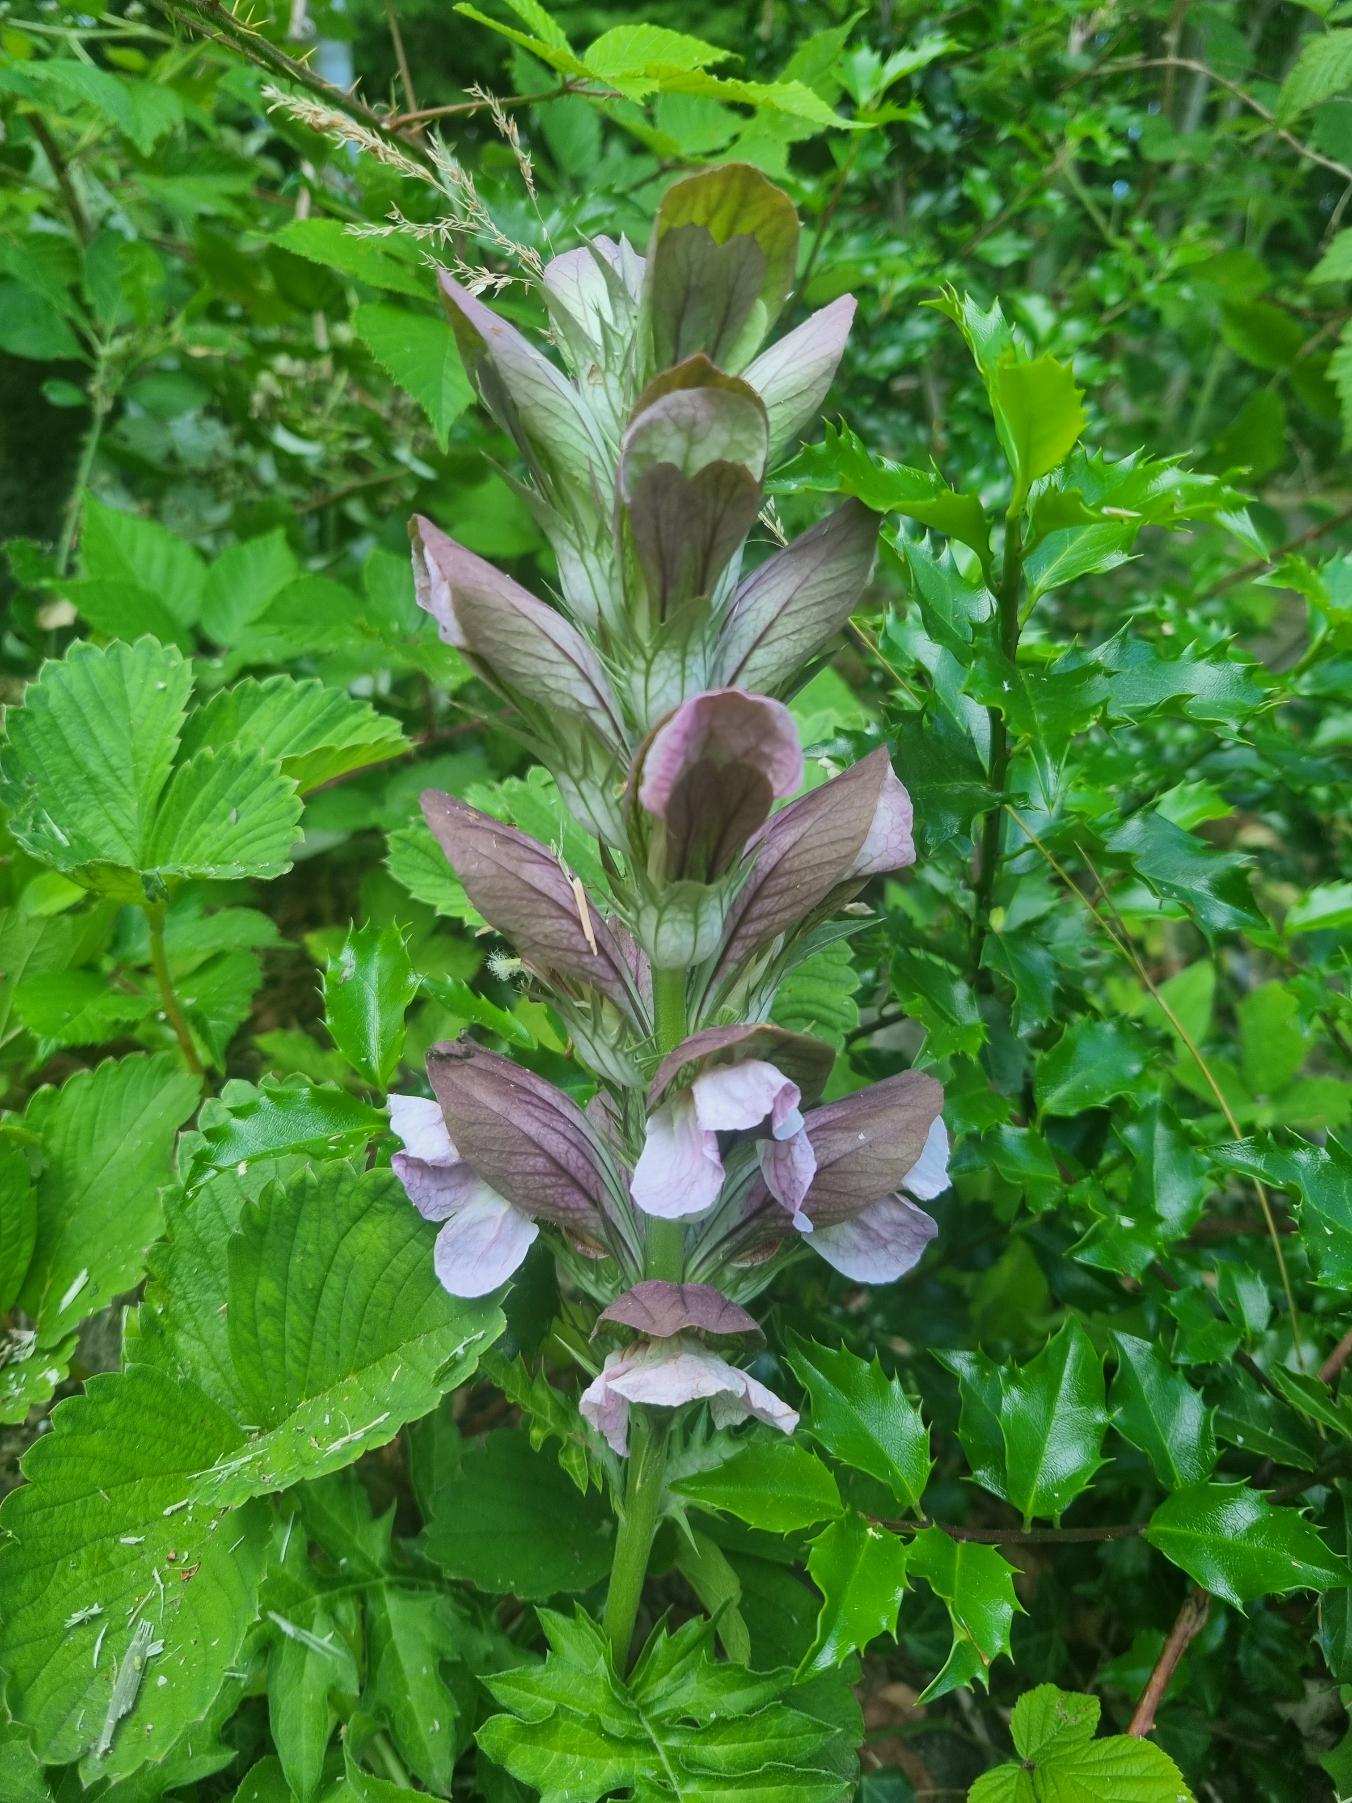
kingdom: Plantae
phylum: Tracheophyta
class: Magnoliopsida
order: Lamiales
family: Acanthaceae
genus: Acanthus
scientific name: Acanthus hungaricus
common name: Balkantidsel
